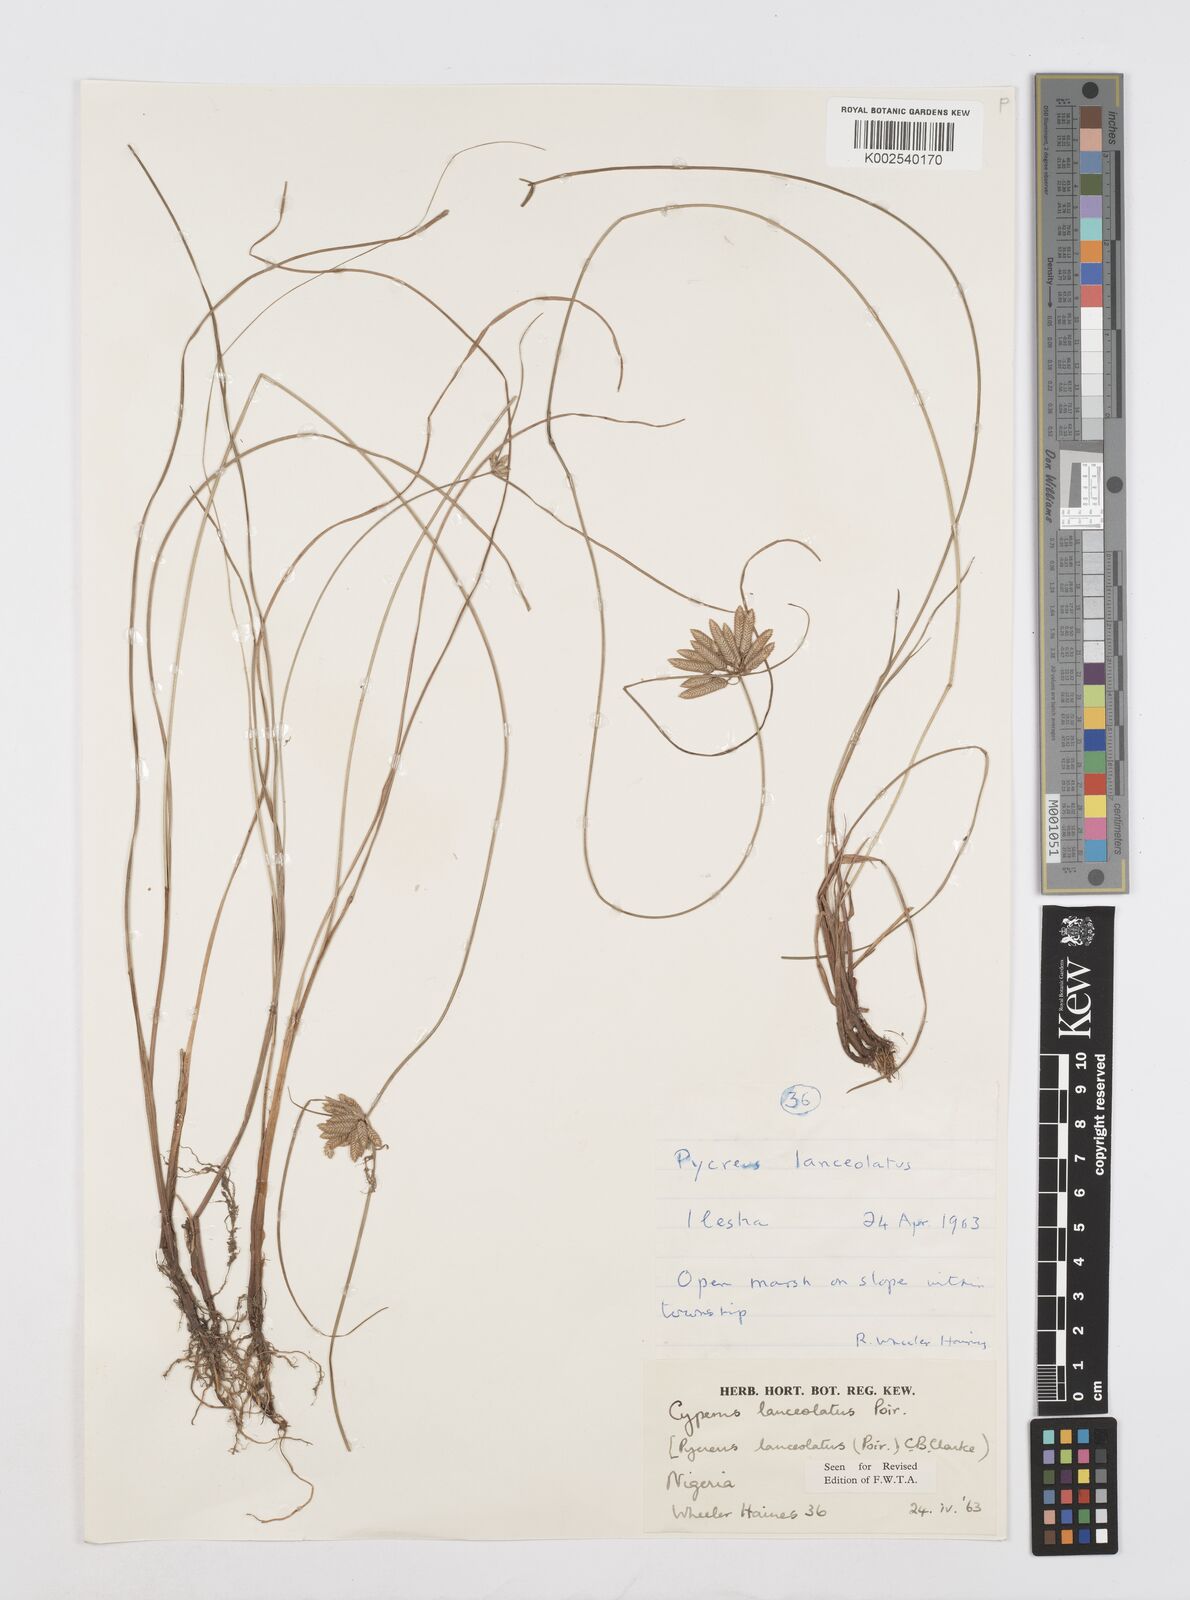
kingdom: Plantae
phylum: Tracheophyta
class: Liliopsida
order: Poales
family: Cyperaceae
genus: Cyperus
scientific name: Cyperus
